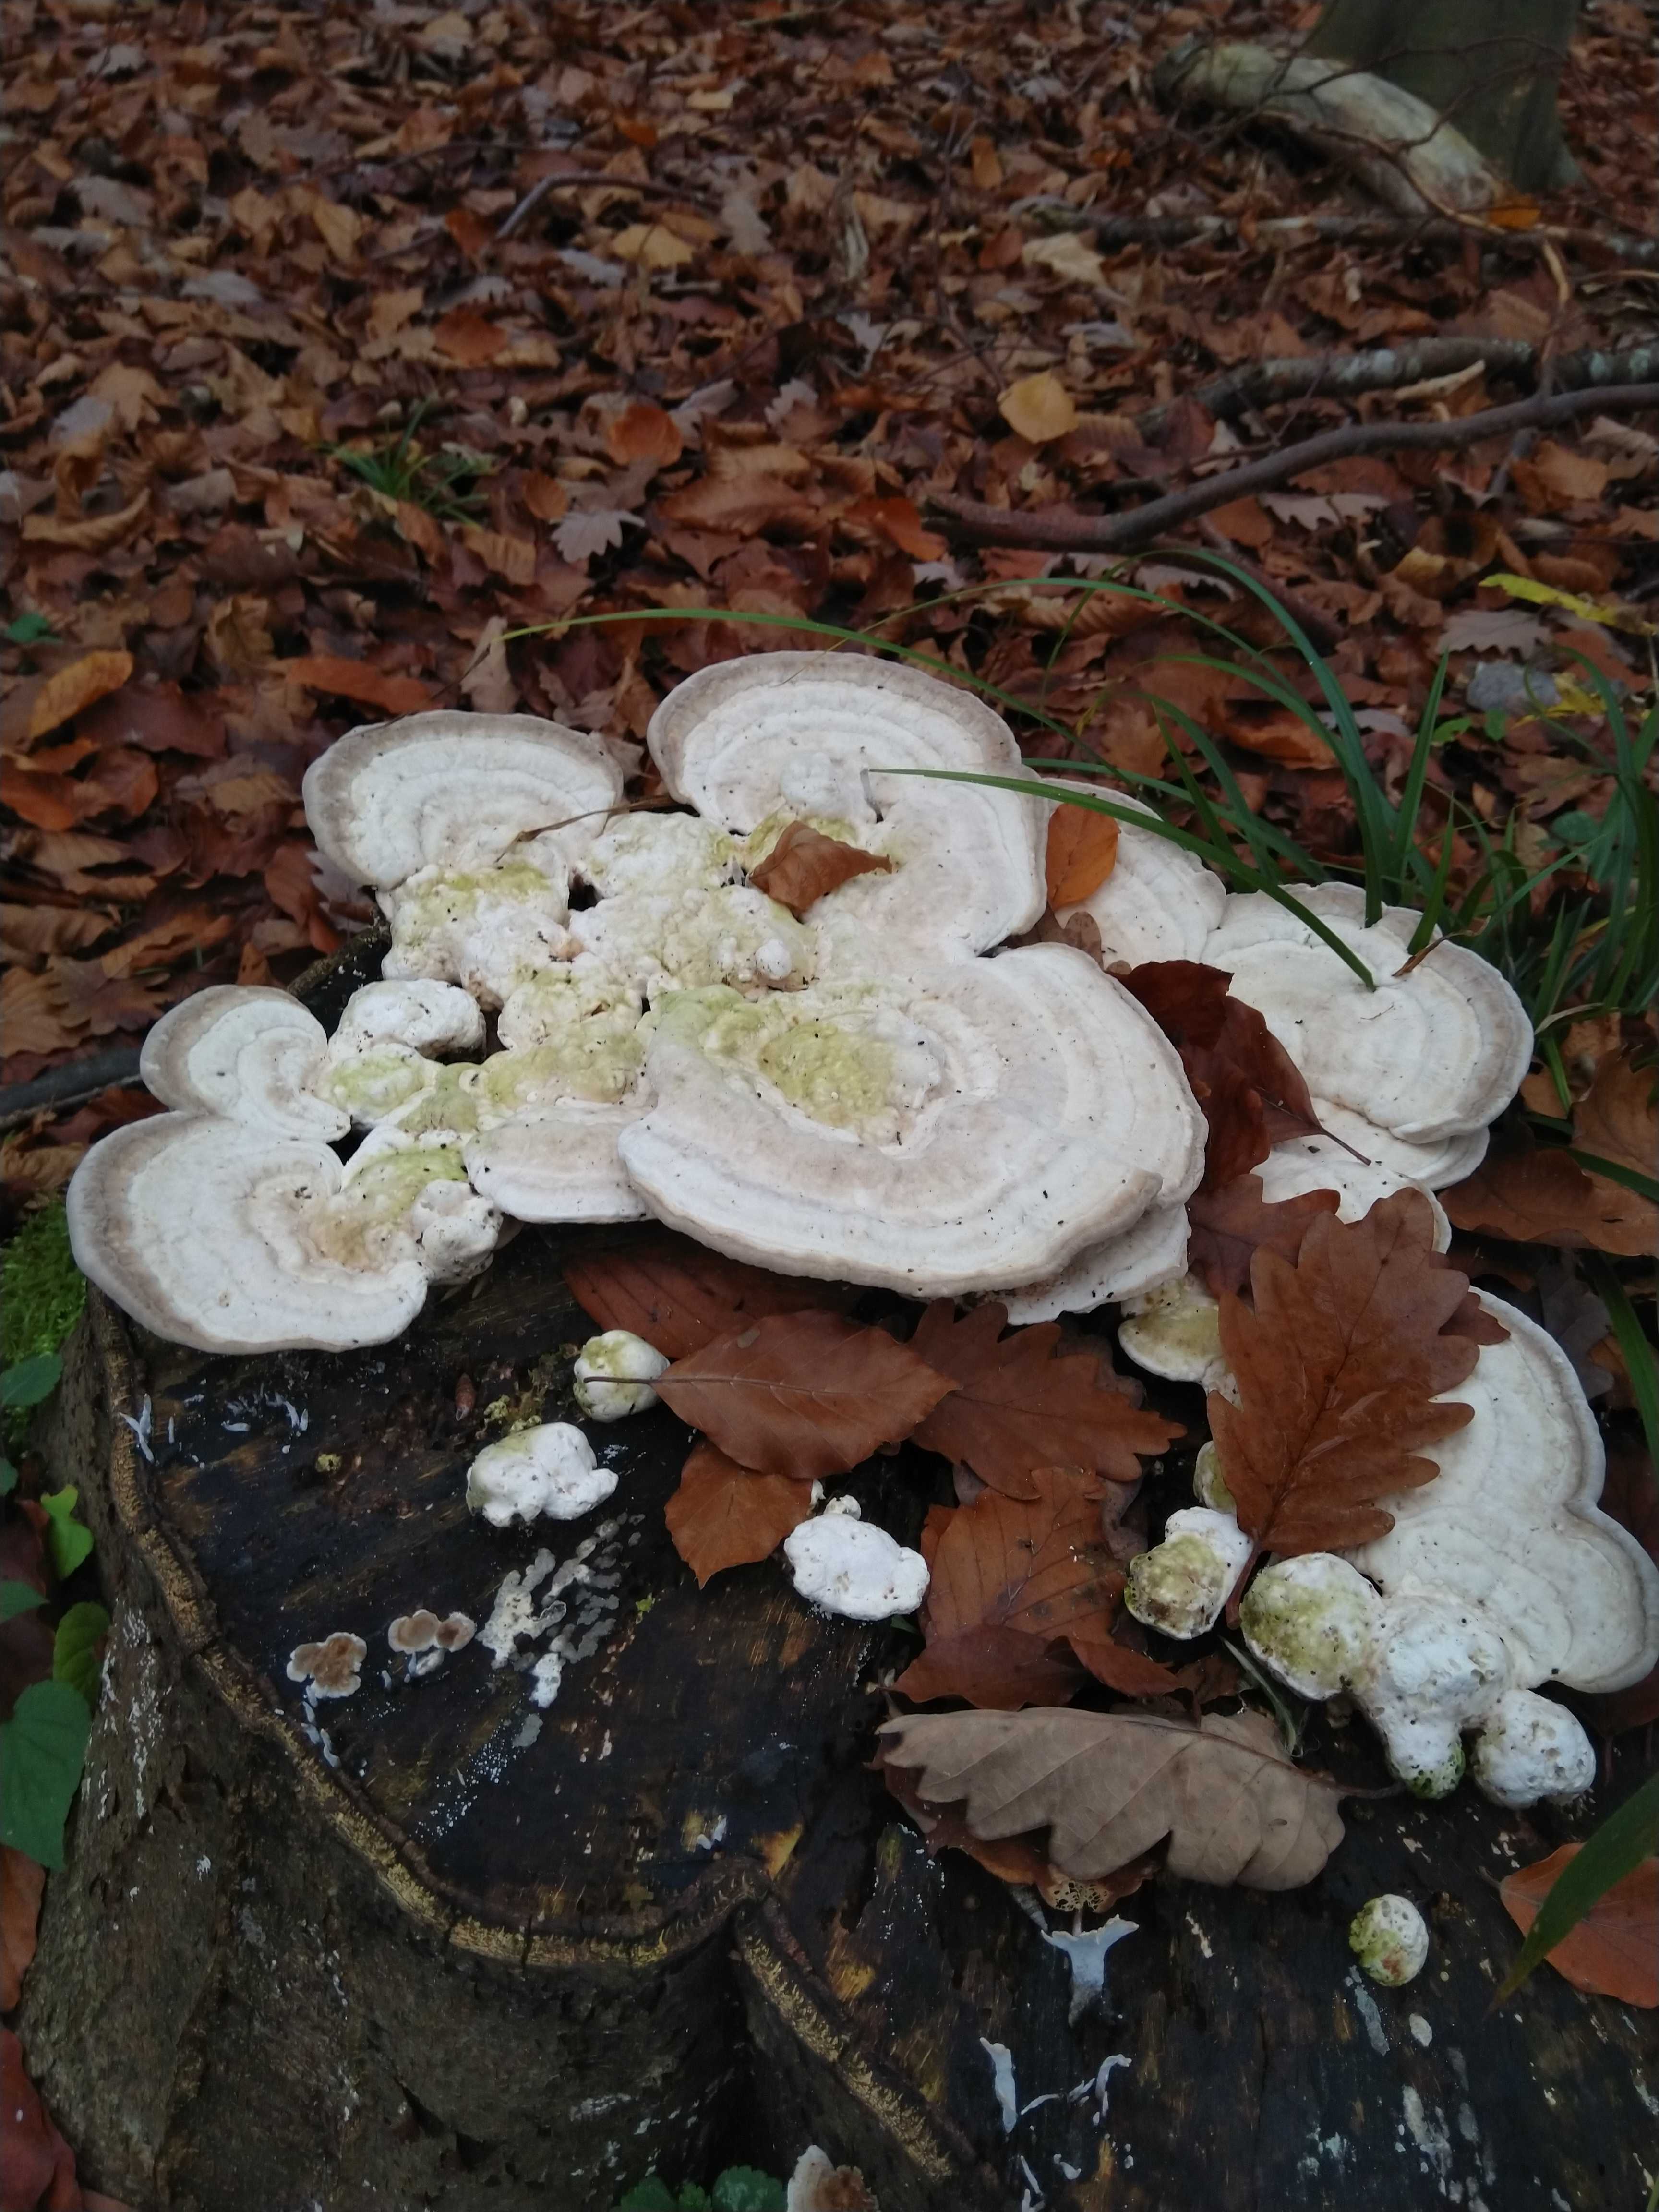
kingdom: Fungi
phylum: Basidiomycota
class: Agaricomycetes
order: Polyporales
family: Polyporaceae
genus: Trametes
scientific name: Trametes gibbosa
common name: puklet læderporesvamp
